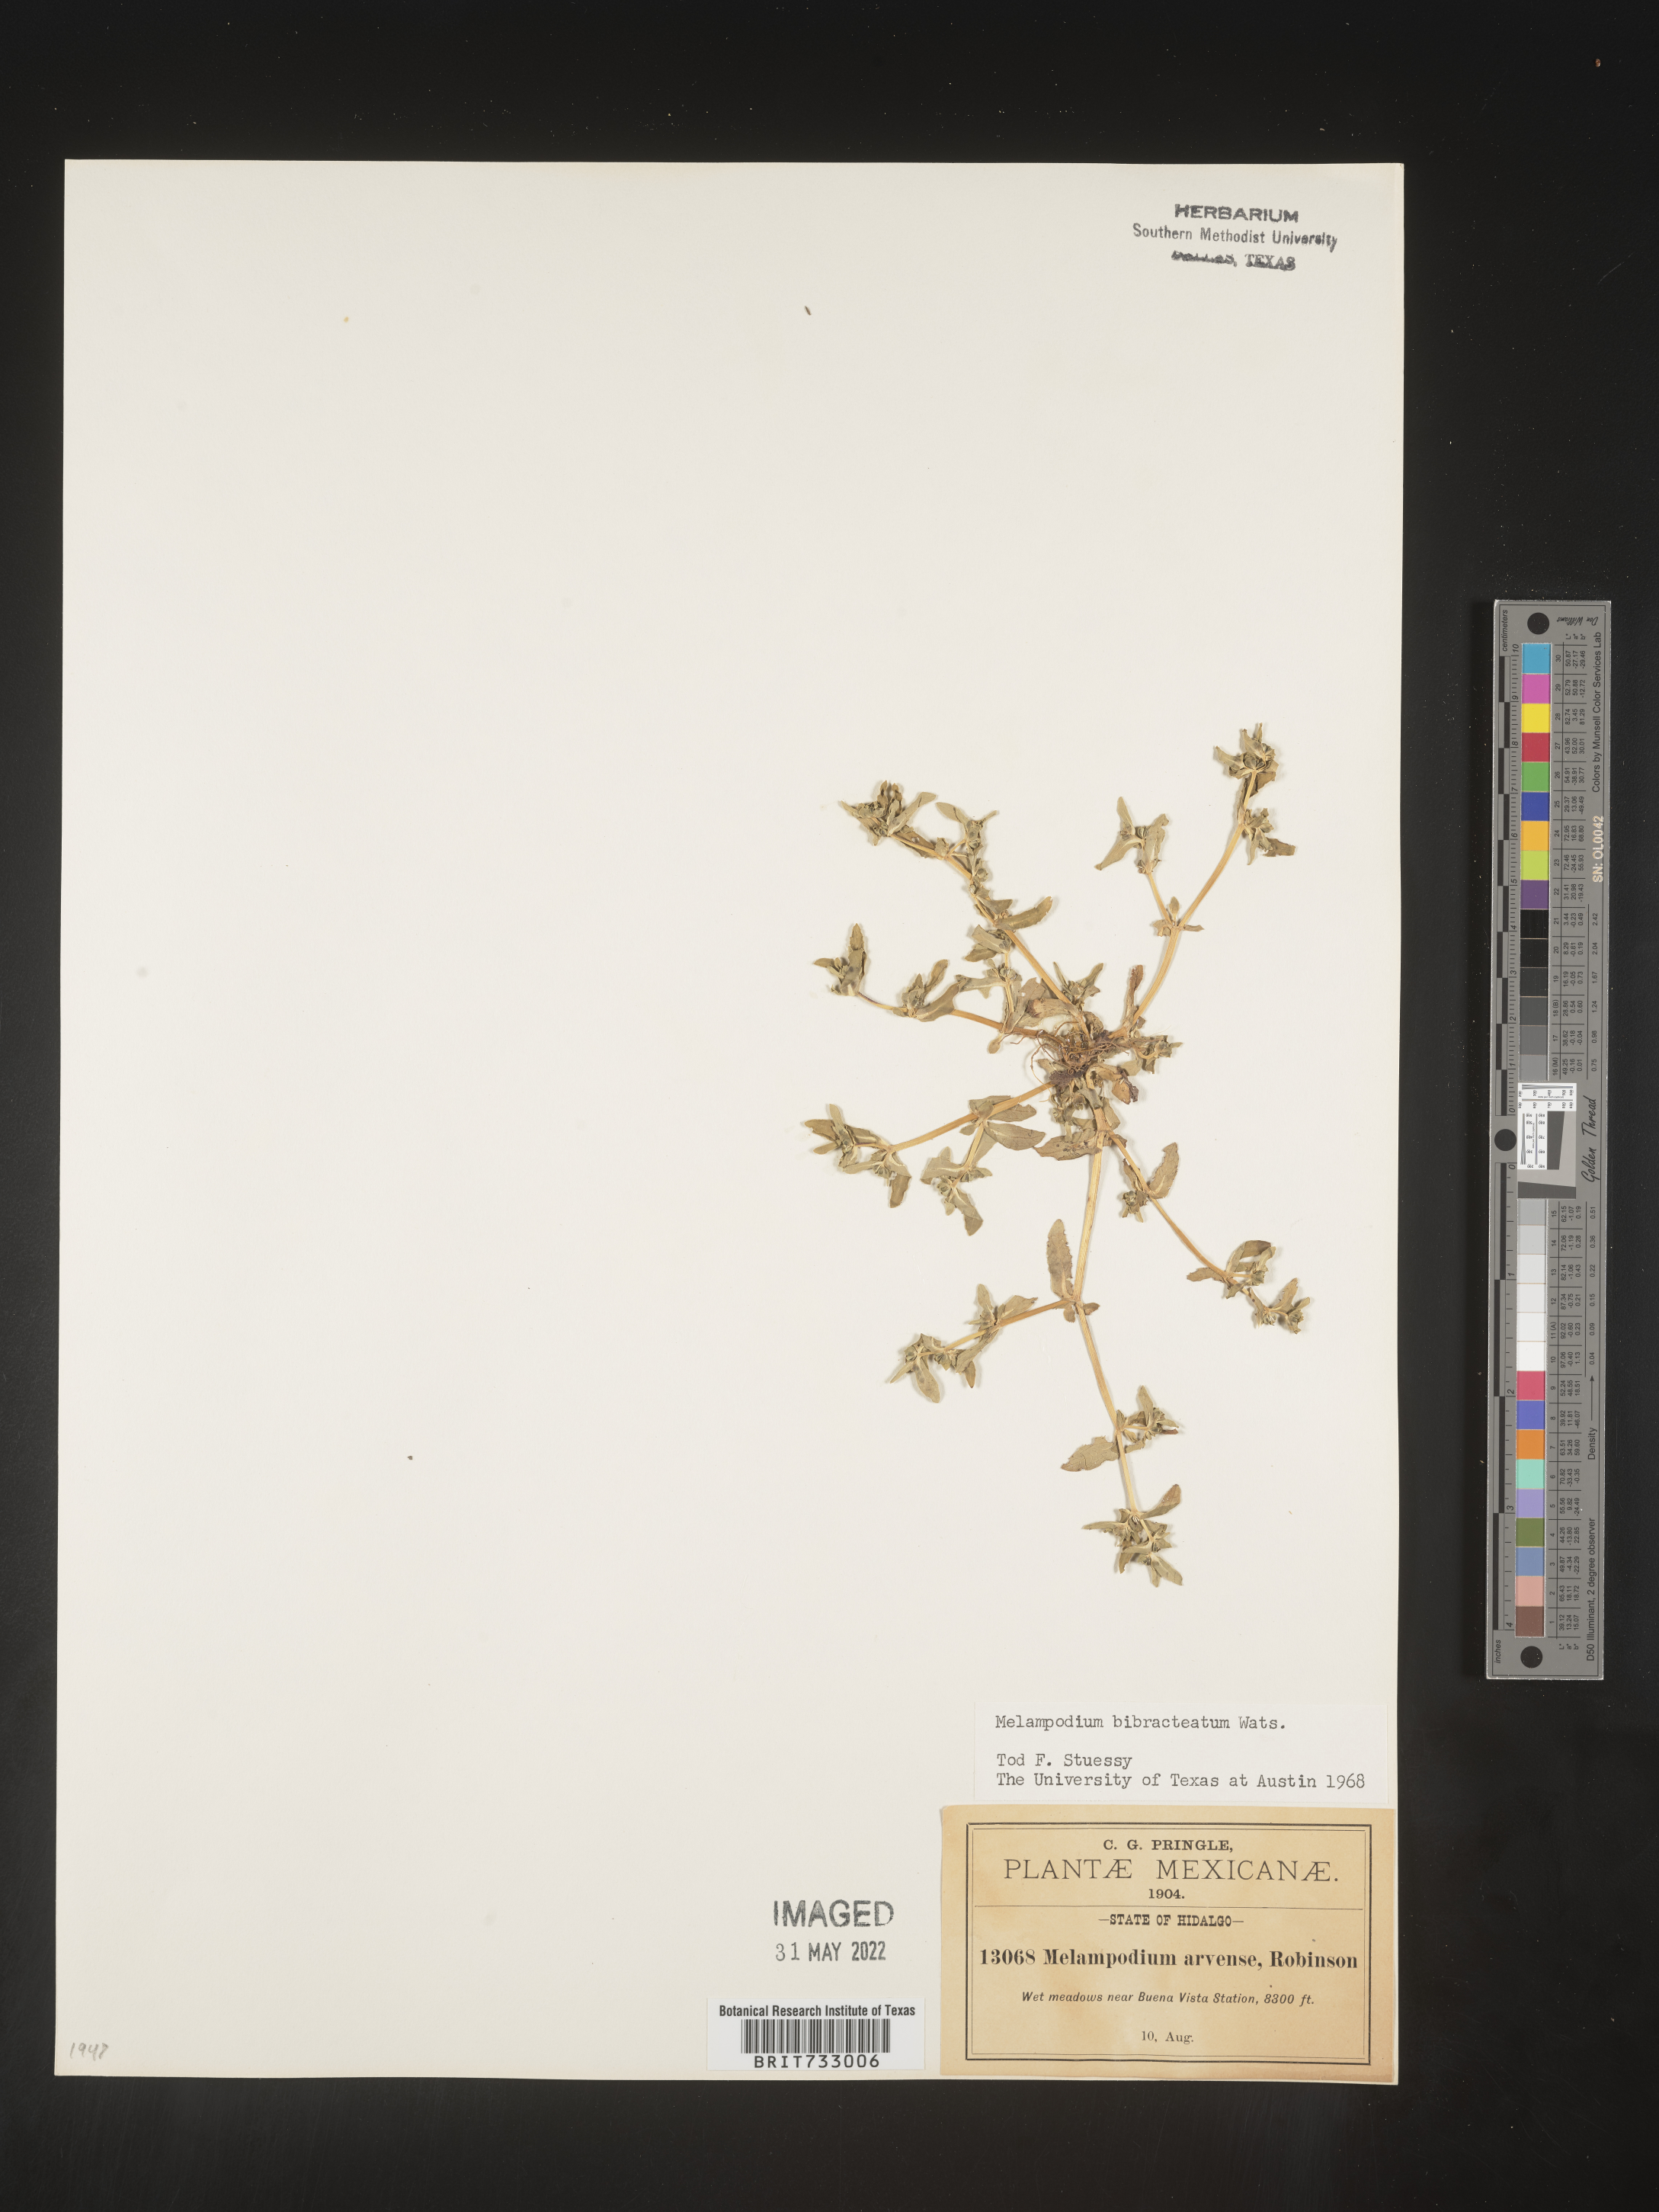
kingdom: Plantae
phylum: Tracheophyta
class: Magnoliopsida
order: Asterales
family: Asteraceae
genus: Melampodium
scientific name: Melampodium
